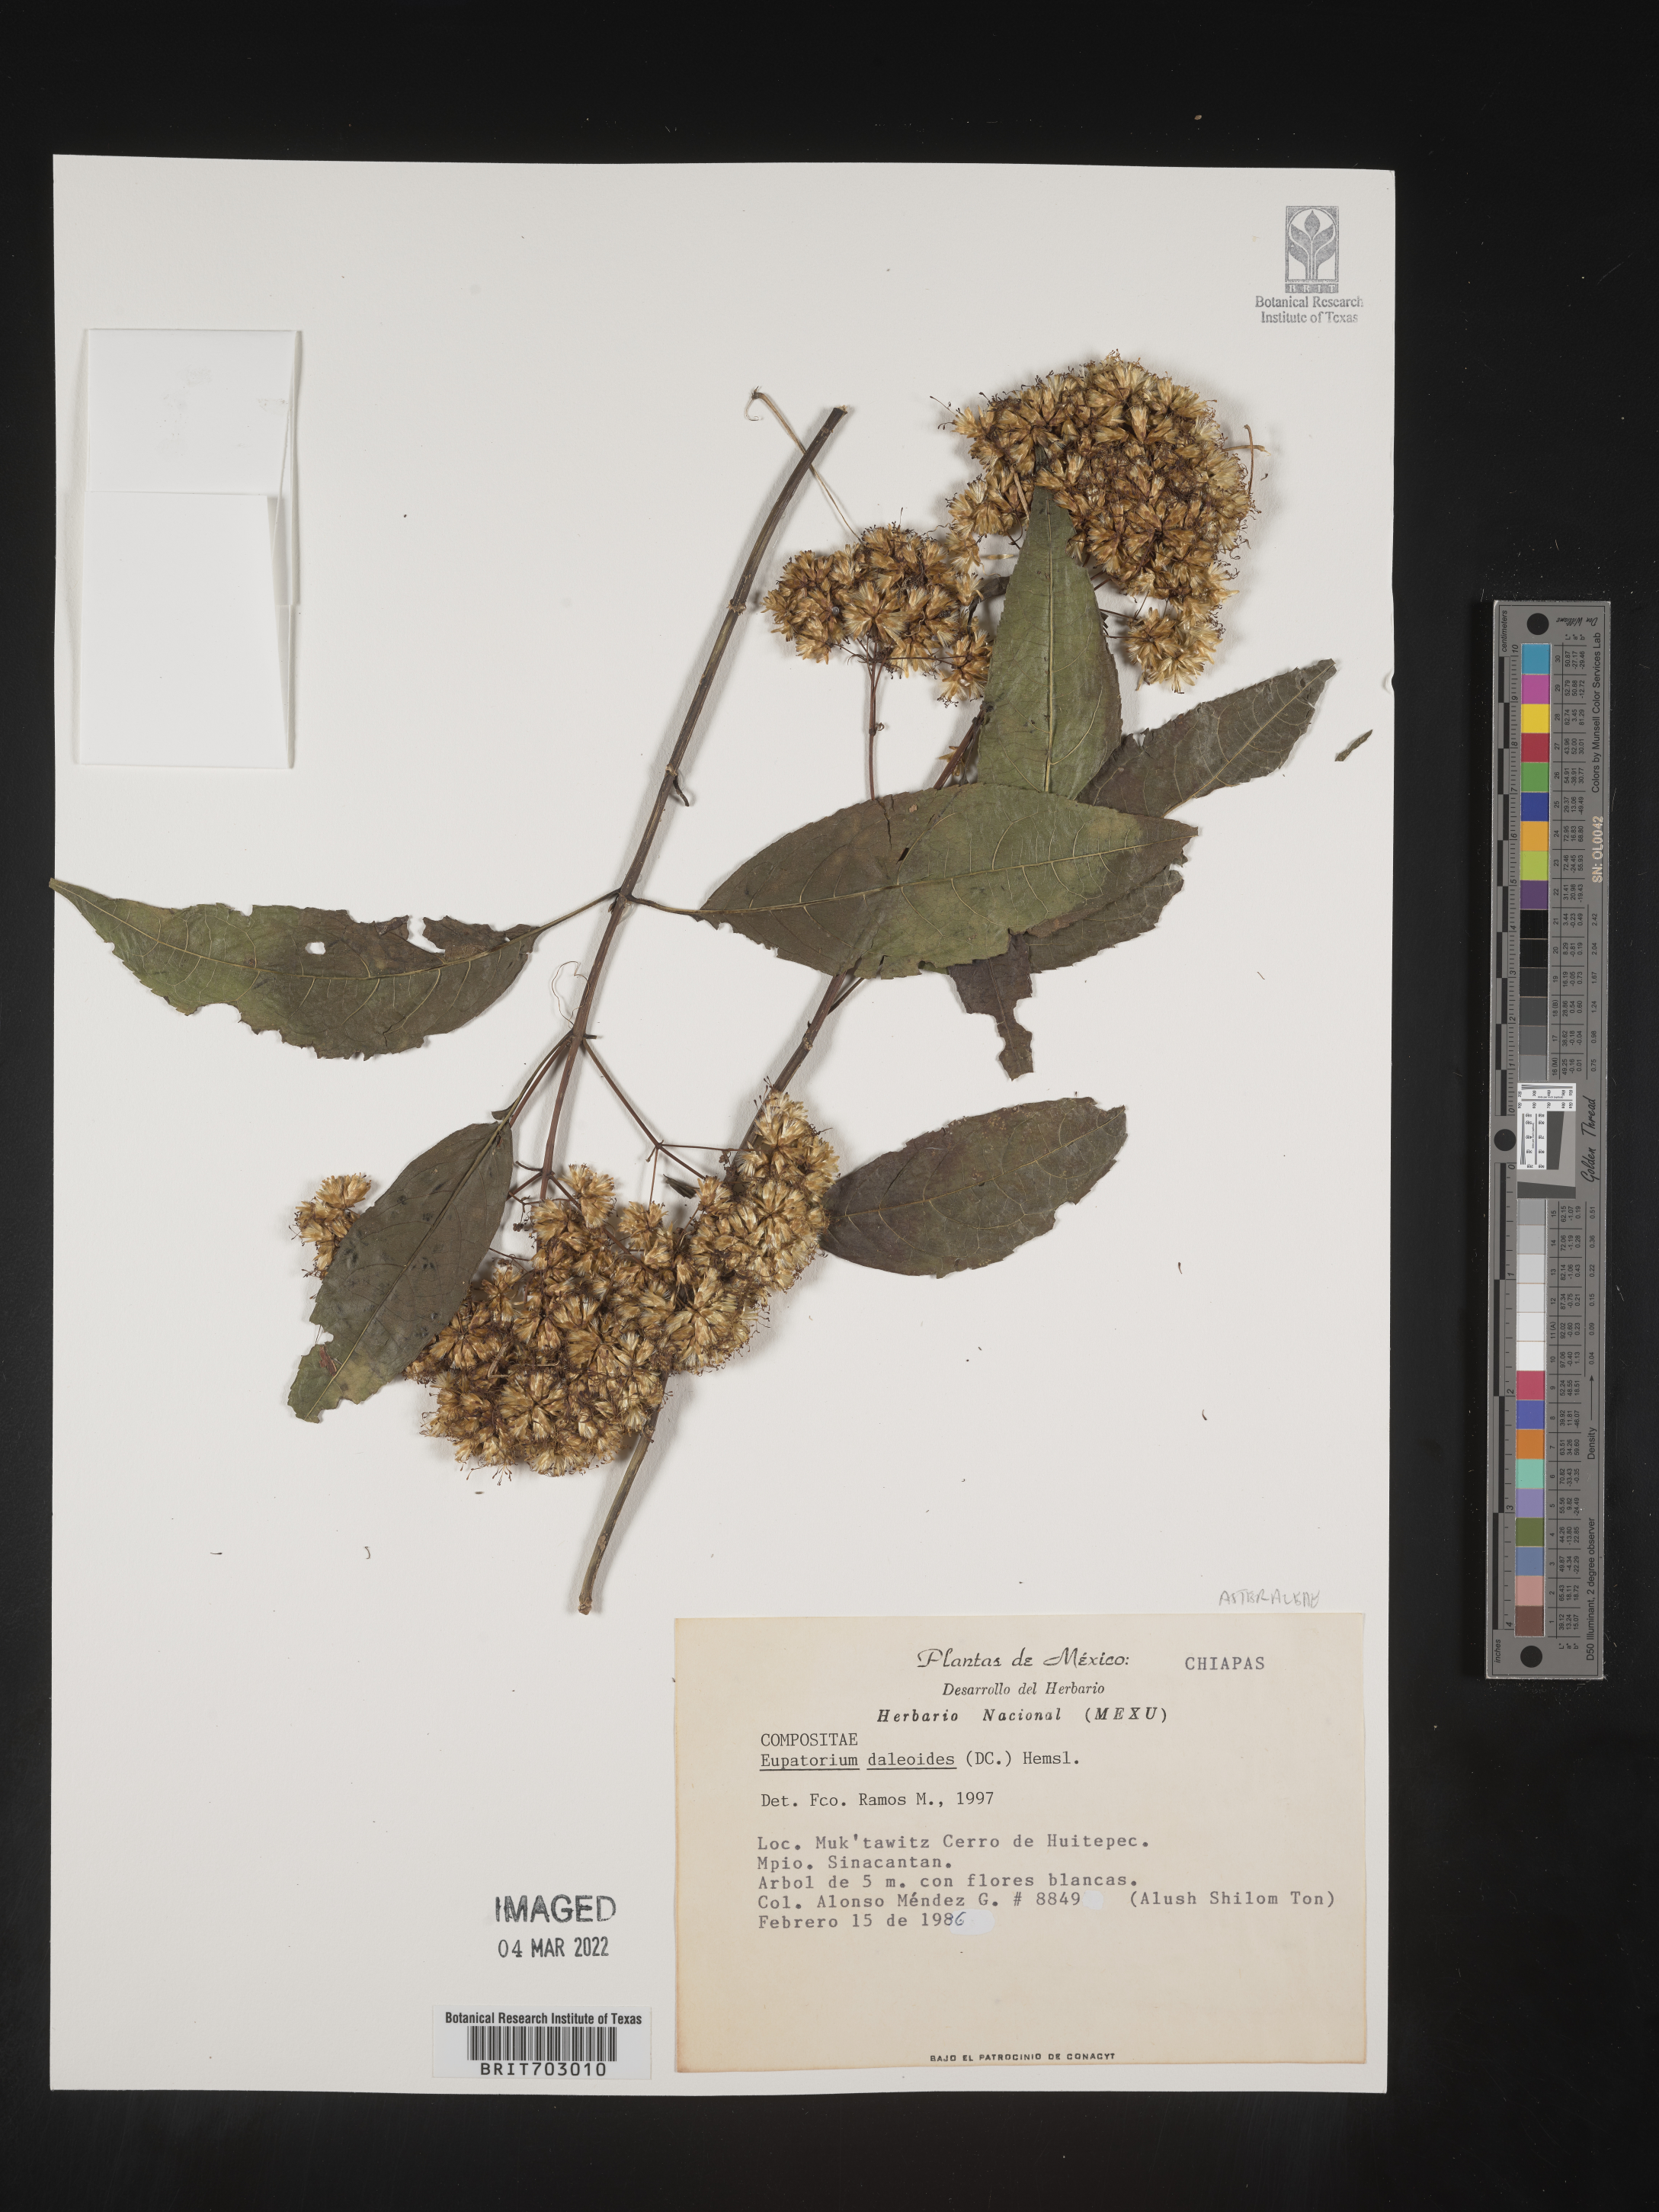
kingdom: Plantae
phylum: Tracheophyta
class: Magnoliopsida
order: Asterales
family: Asteraceae
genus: Eupatorium
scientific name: Eupatorium
